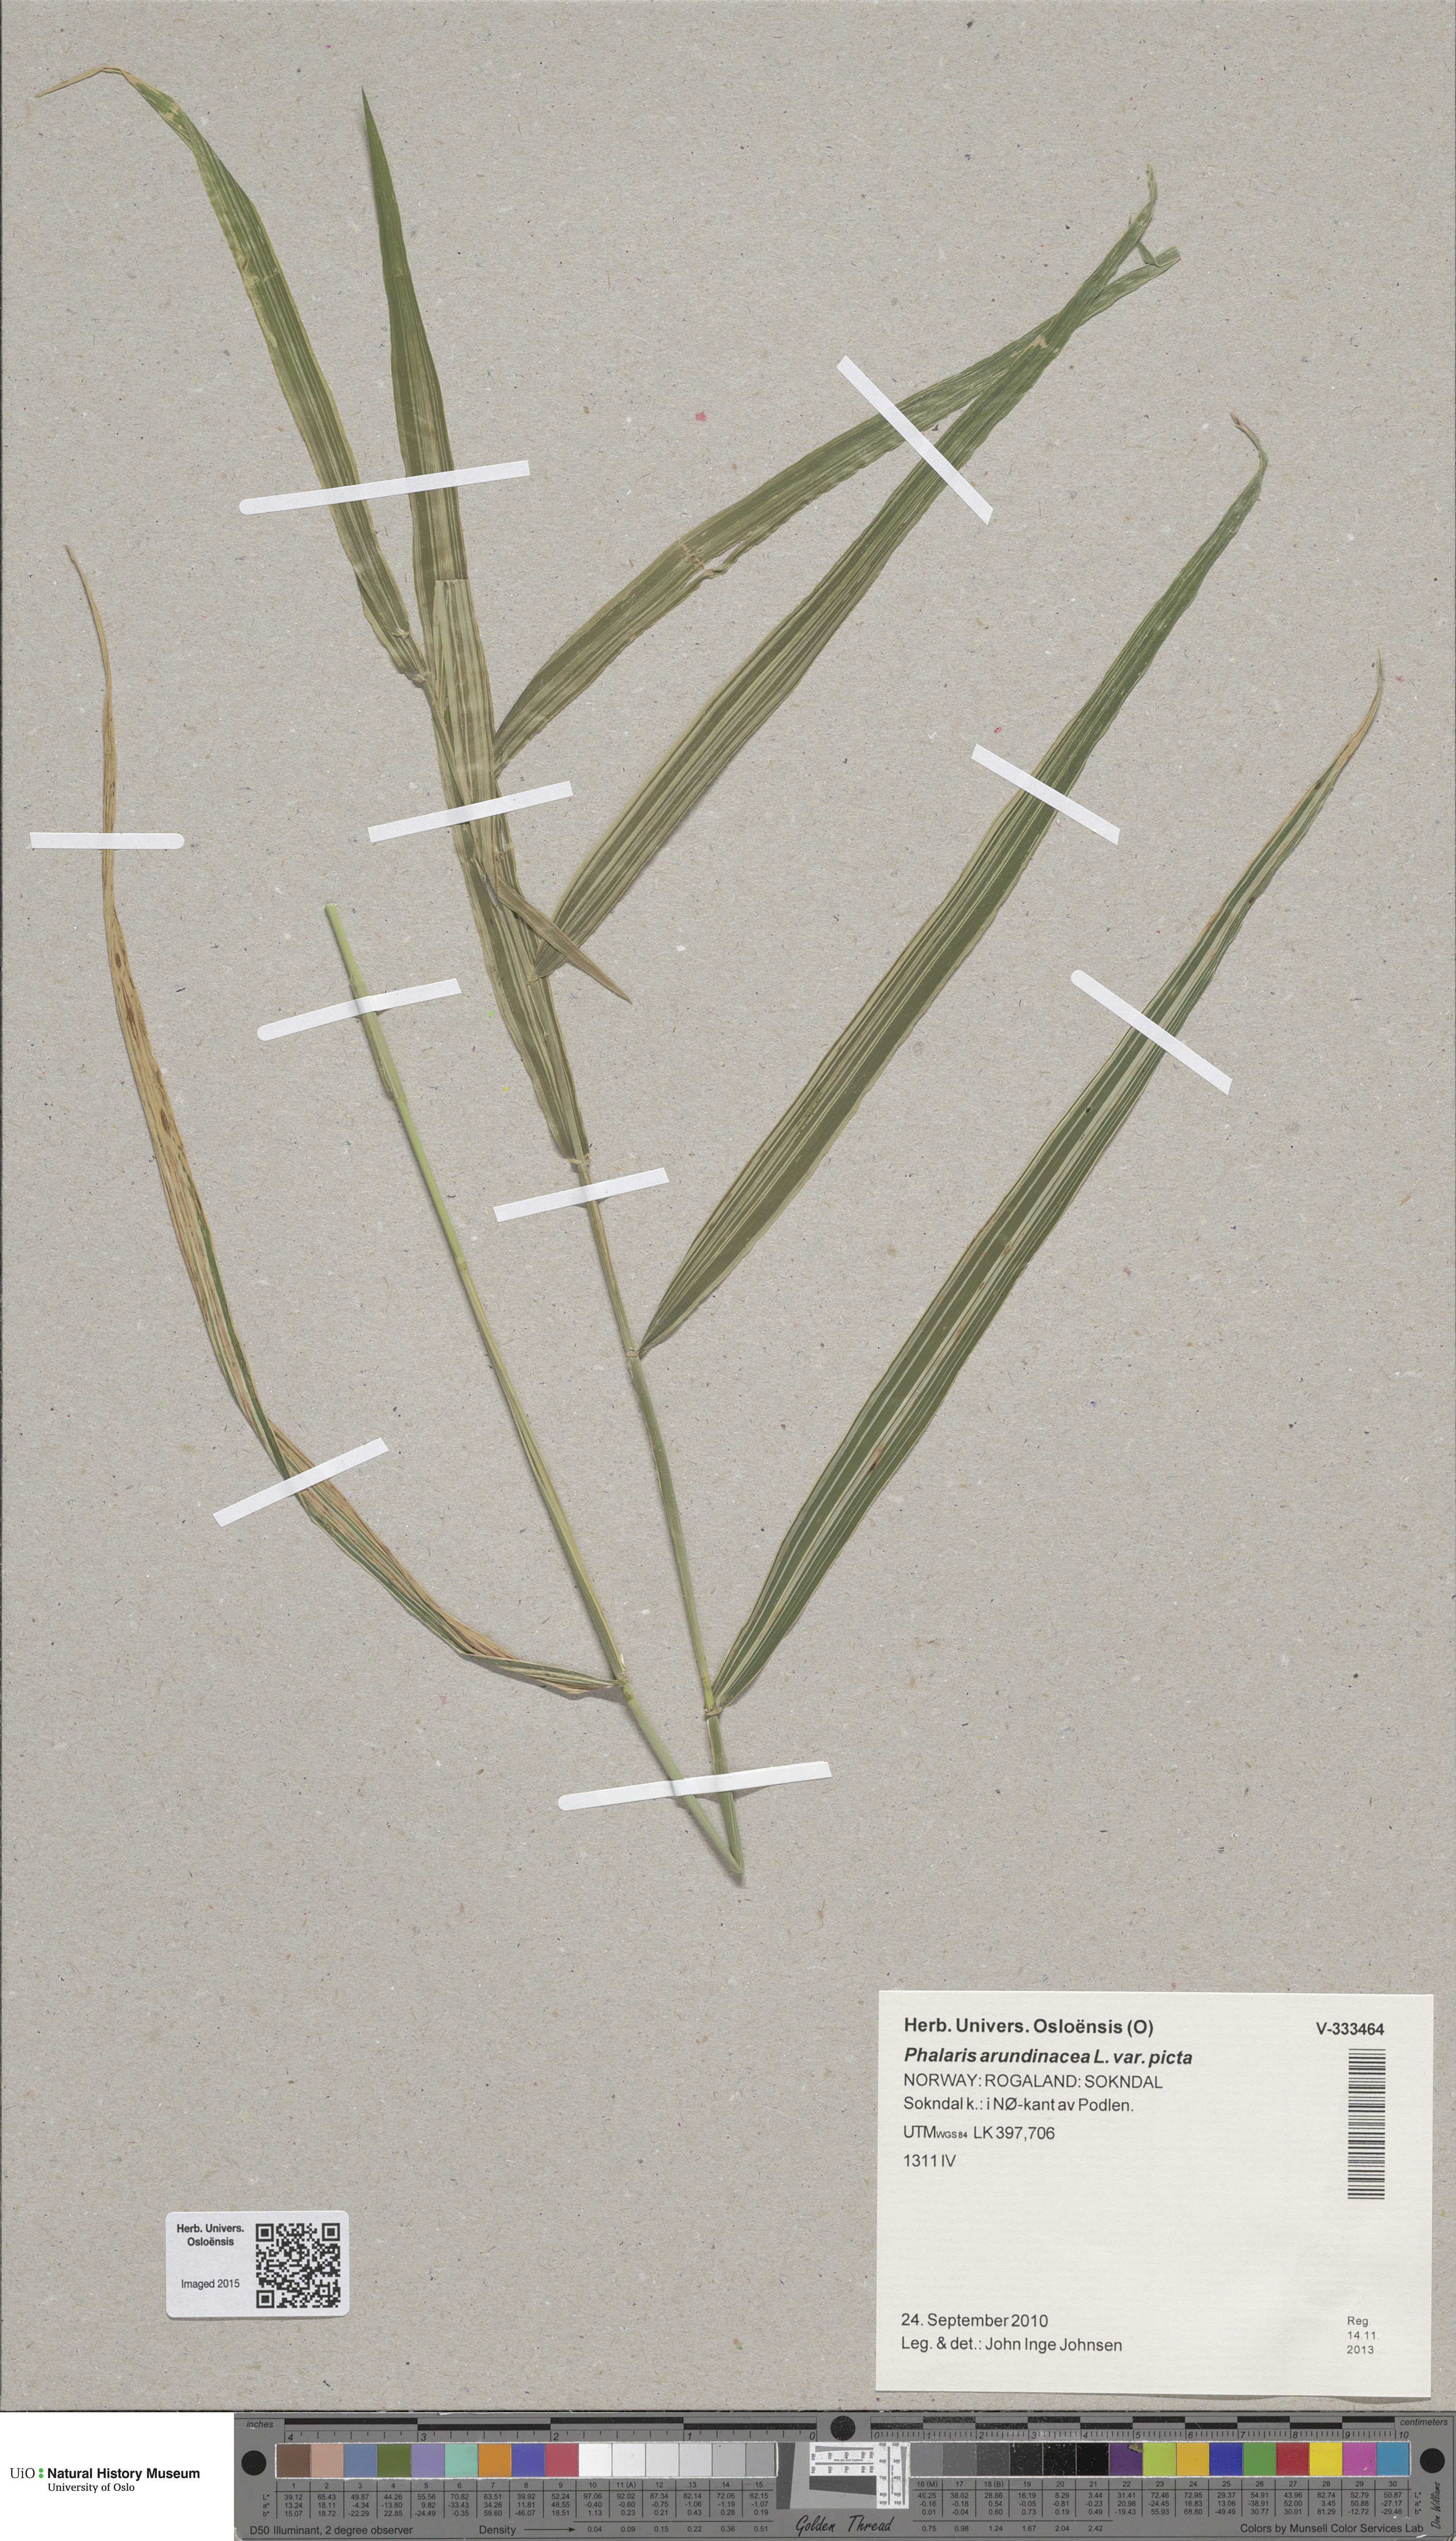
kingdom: Plantae
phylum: Tracheophyta
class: Liliopsida
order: Poales
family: Poaceae
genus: Phalaris
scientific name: Phalaris arundinacea
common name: Reed canary-grass
